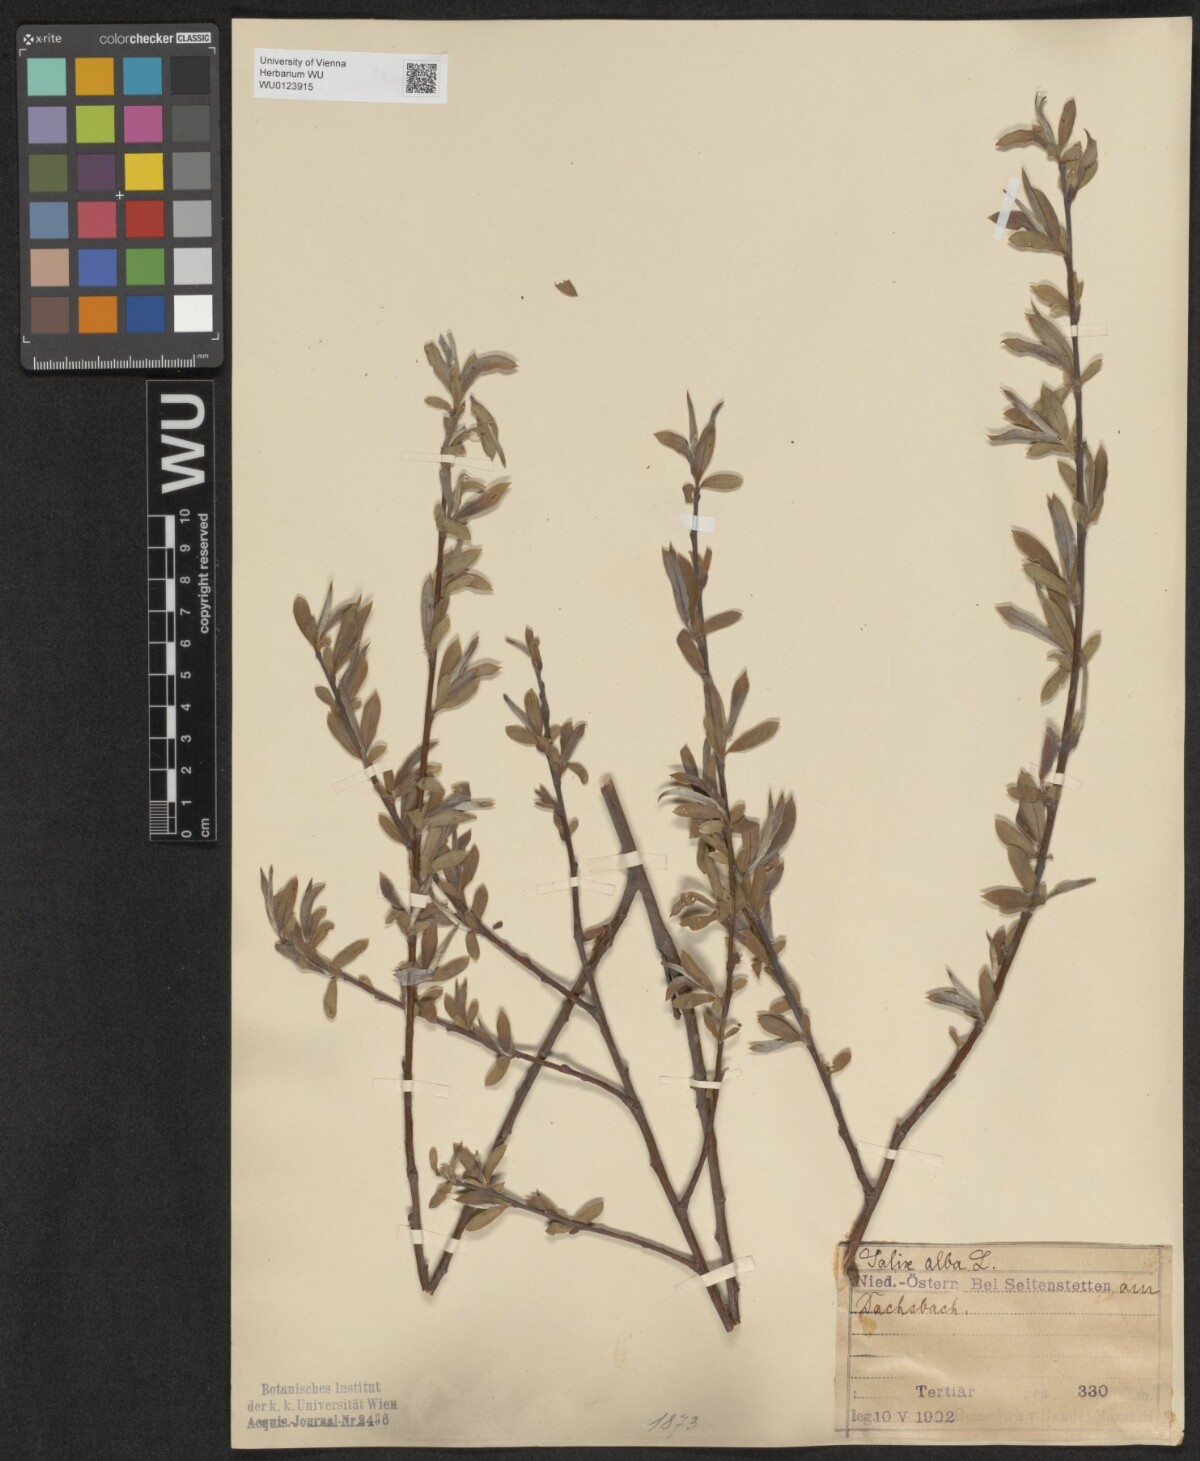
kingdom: Plantae
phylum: Tracheophyta
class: Magnoliopsida
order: Malpighiales
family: Salicaceae
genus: Salix
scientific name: Salix alba
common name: White willow
